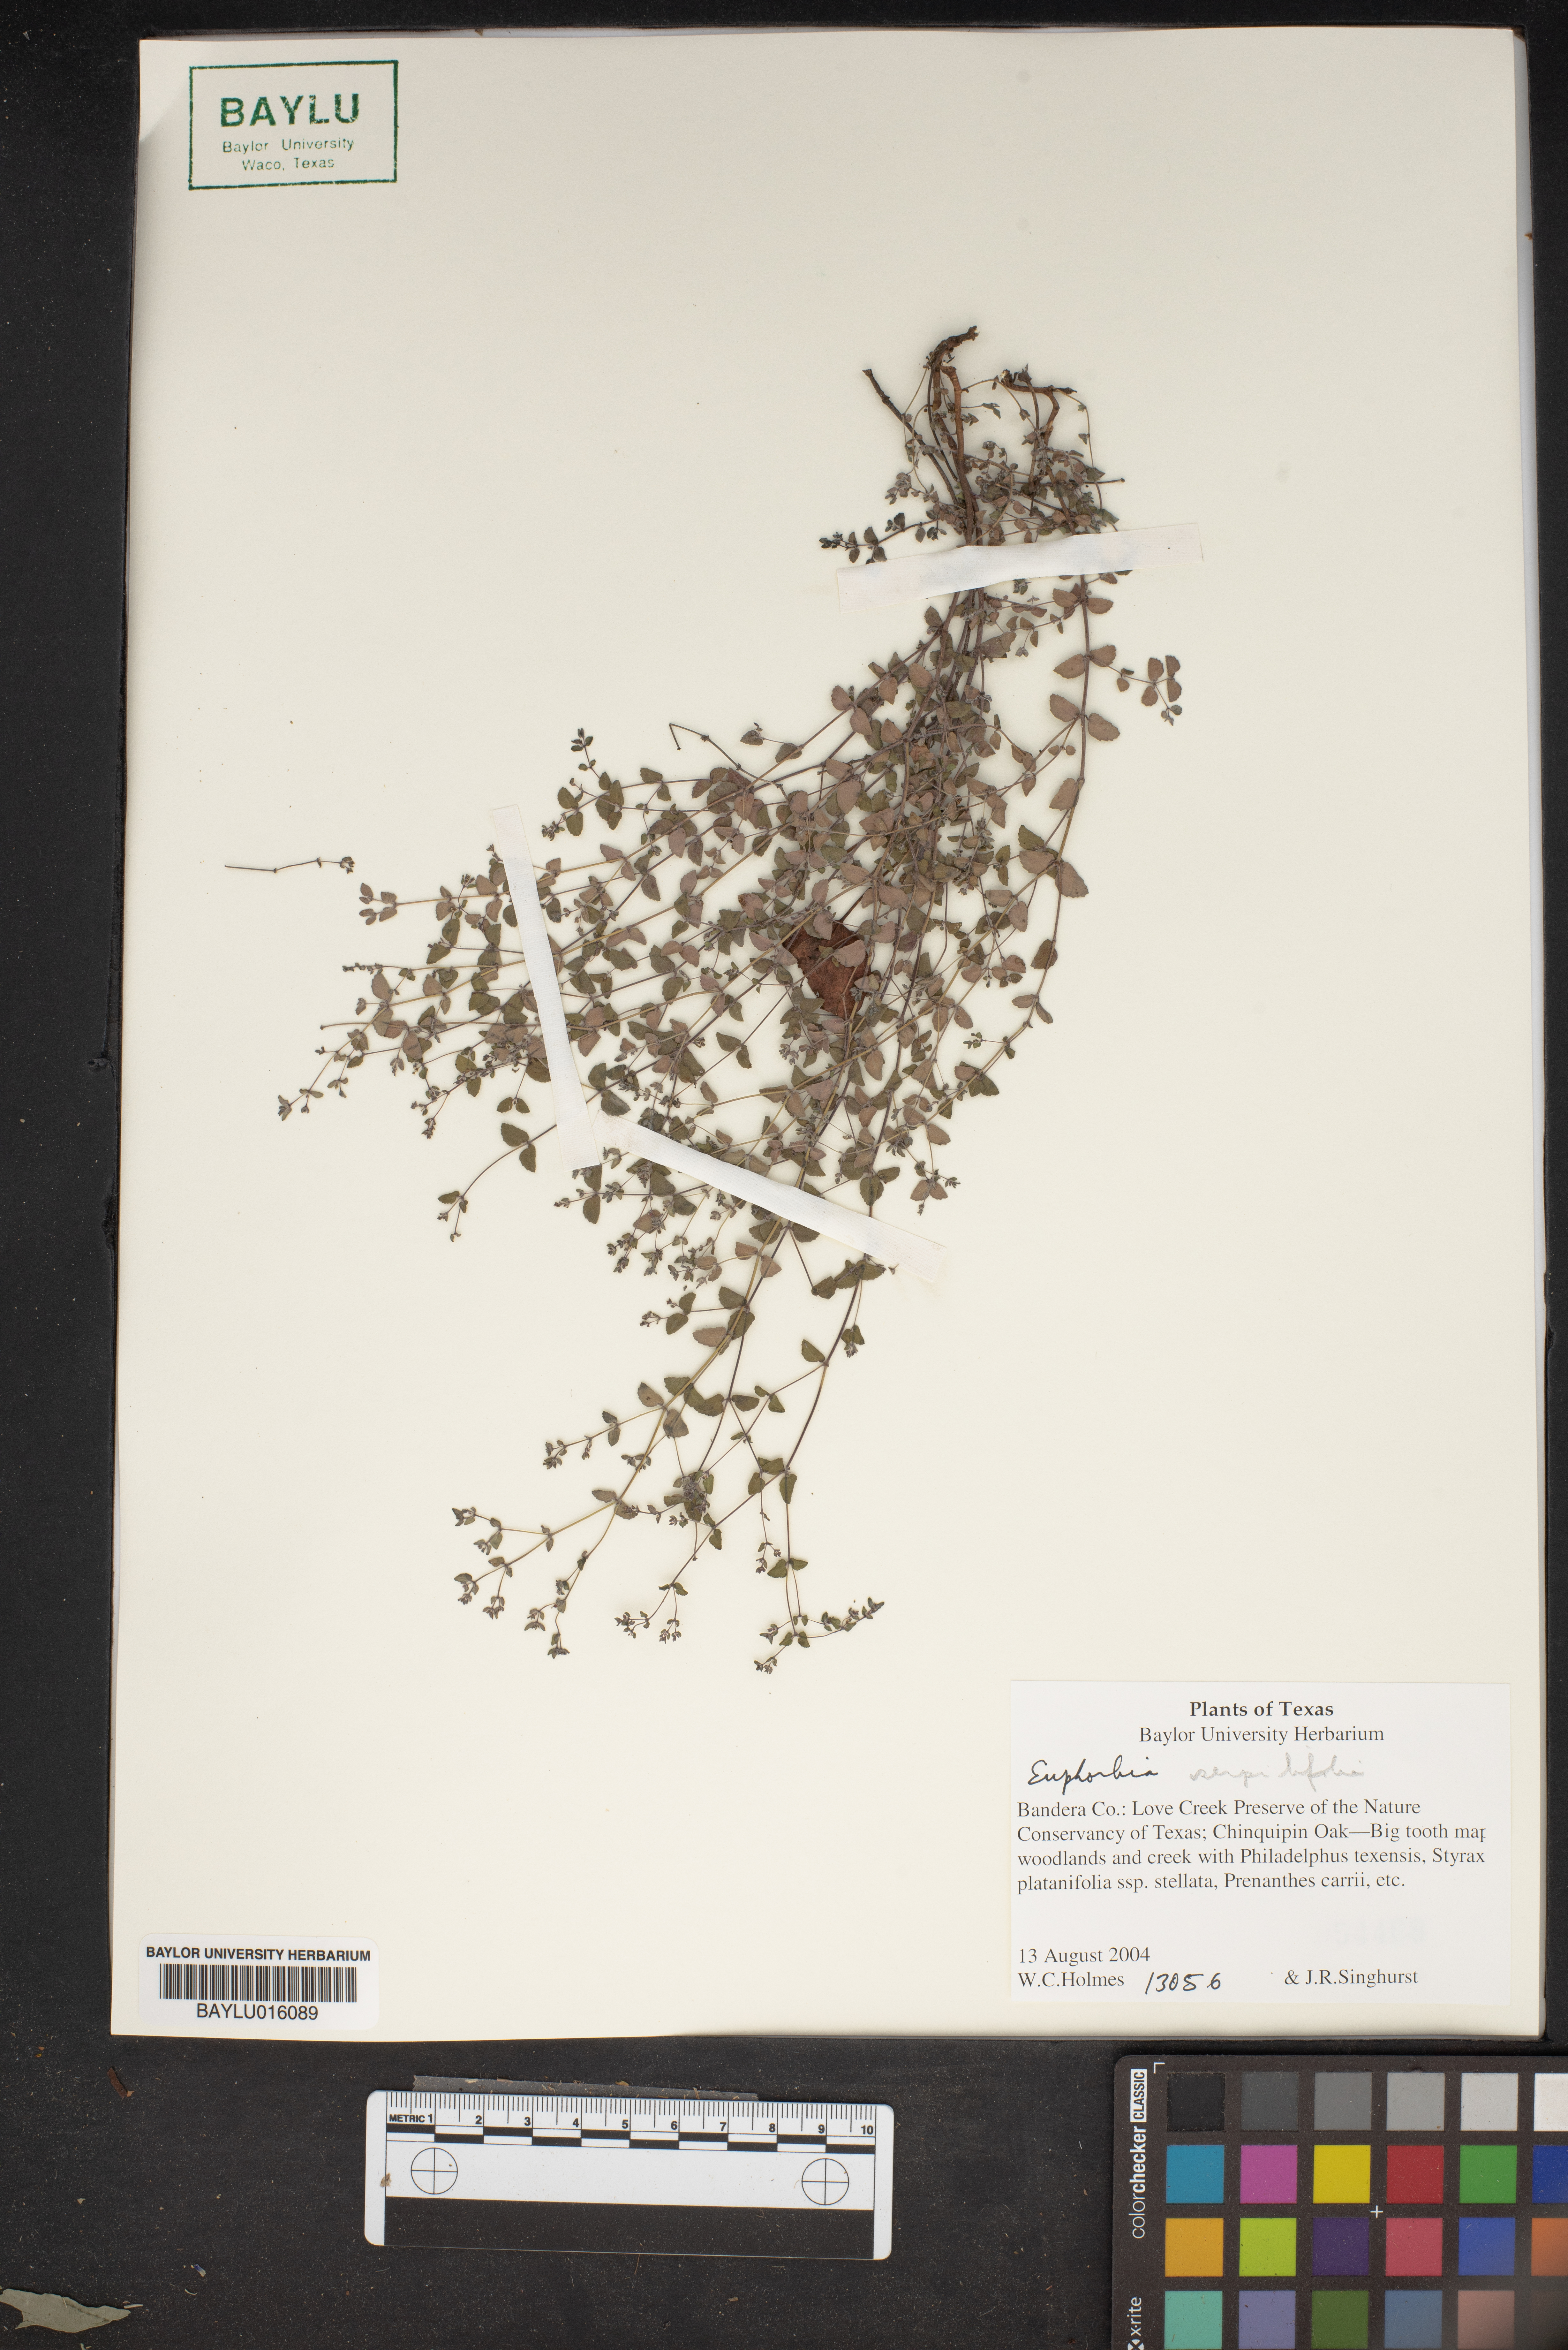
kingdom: Plantae
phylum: Tracheophyta
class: Magnoliopsida
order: Malpighiales
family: Euphorbiaceae
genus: Euphorbia
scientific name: Euphorbia serpillifolia
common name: Thyme-leaf spurge
